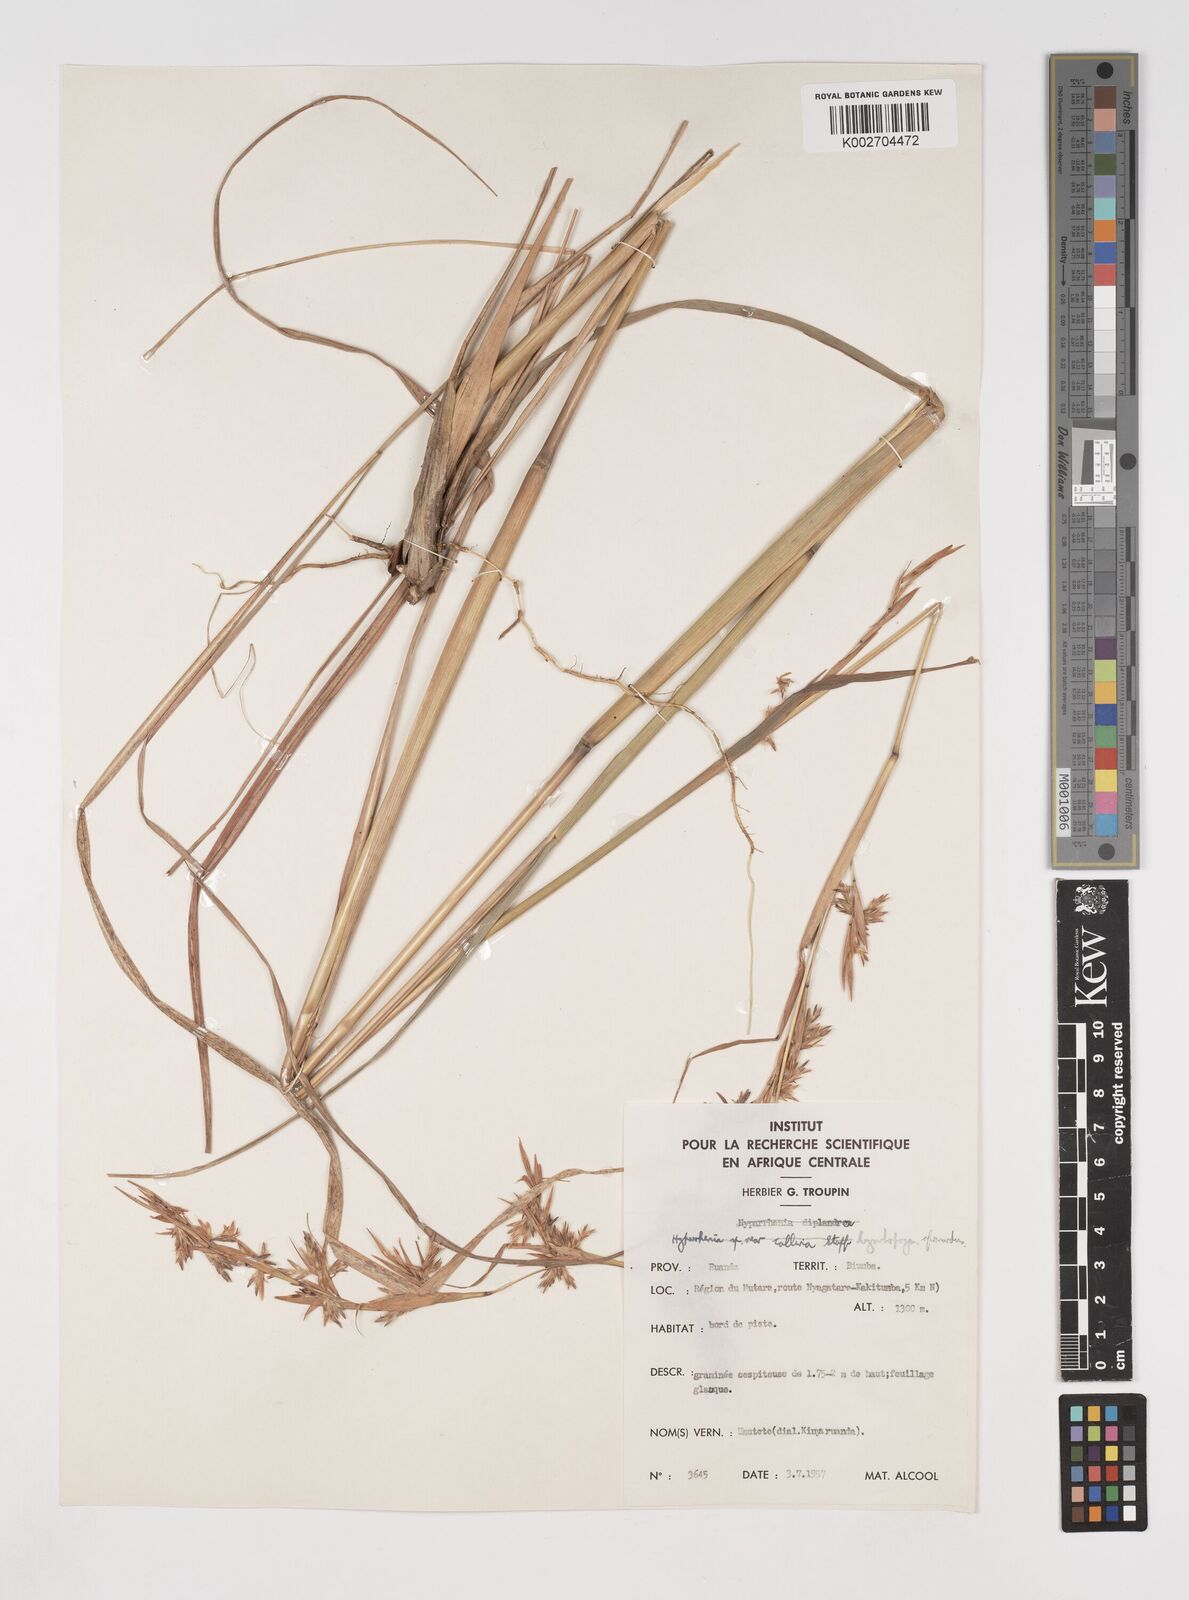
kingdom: Plantae
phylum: Tracheophyta
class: Liliopsida
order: Poales
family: Poaceae
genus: Cymbopogon
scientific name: Cymbopogon nardus
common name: Giant turpentine grass
